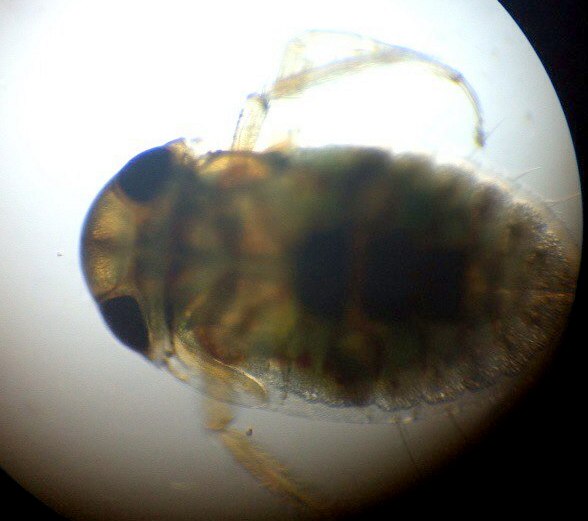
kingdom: Animalia
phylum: Arthropoda
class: Insecta
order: Hemiptera
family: Pleidae
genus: Plea
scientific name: Plea minutissima
